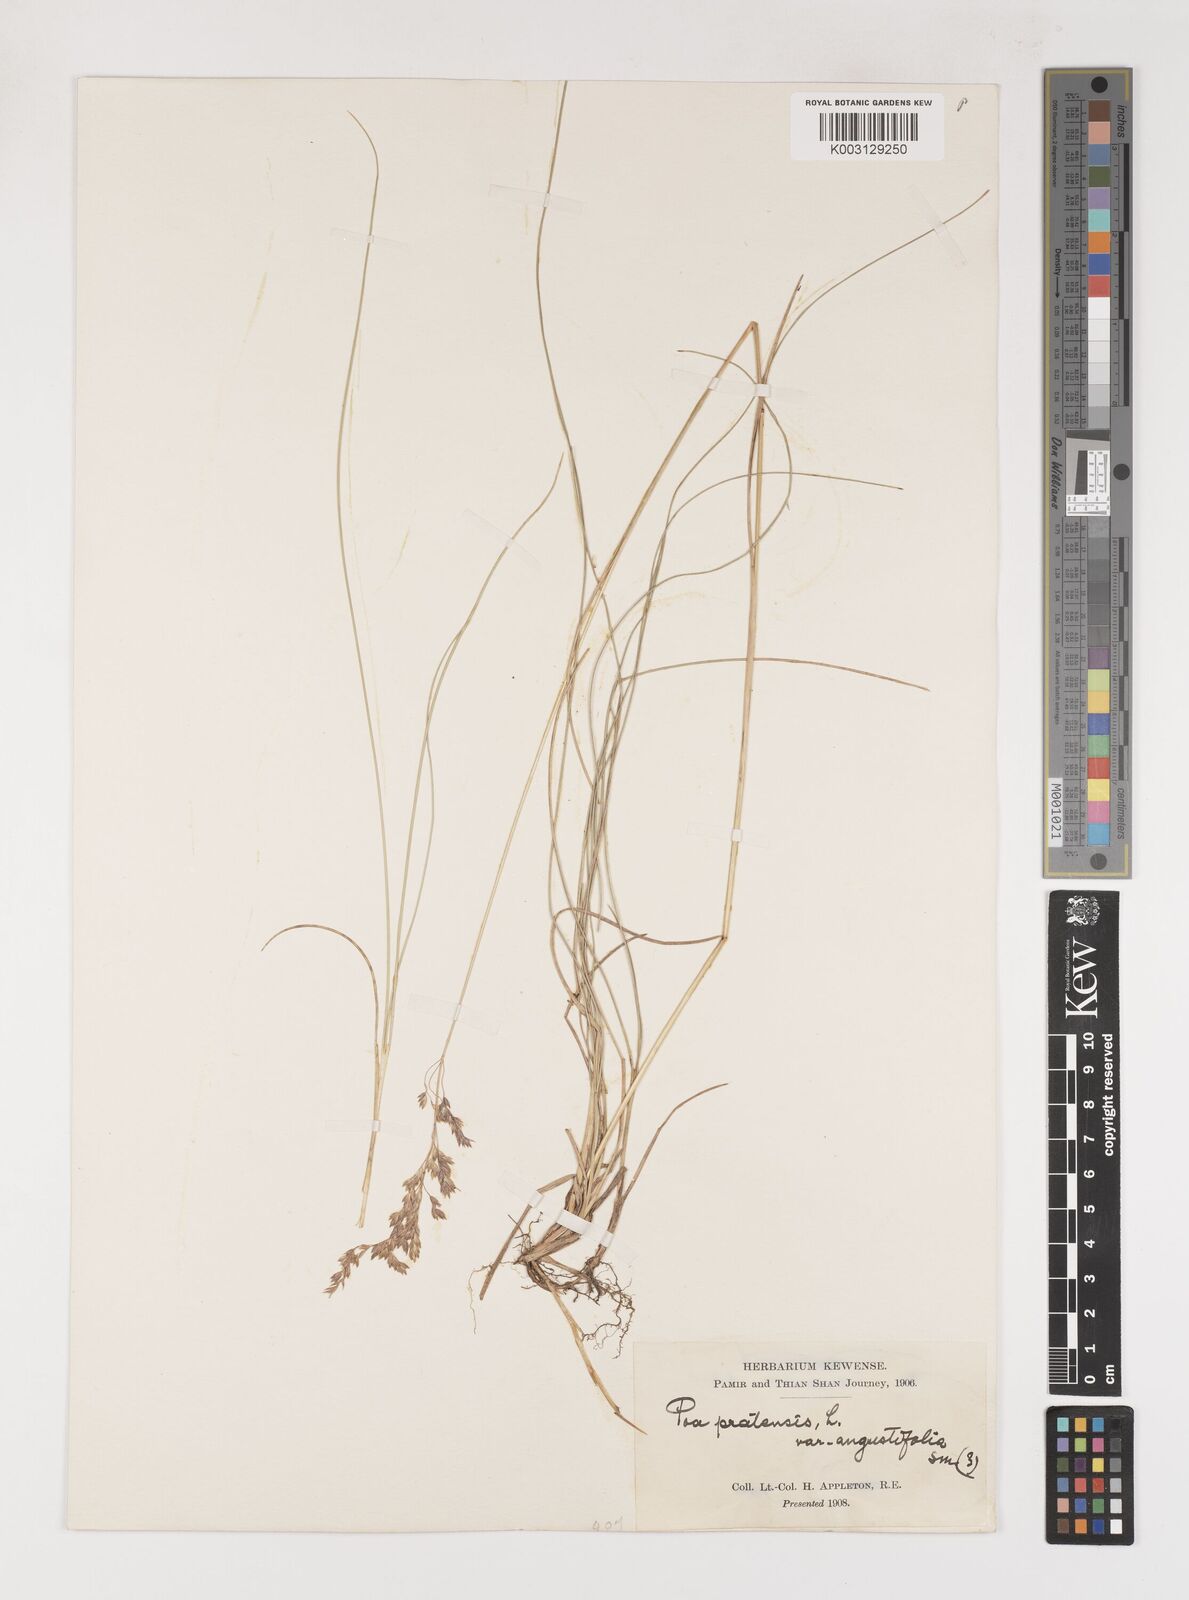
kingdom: Plantae
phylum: Tracheophyta
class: Liliopsida
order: Poales
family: Poaceae
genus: Poa
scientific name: Poa angustifolia
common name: Narrow-leaved meadow-grass
